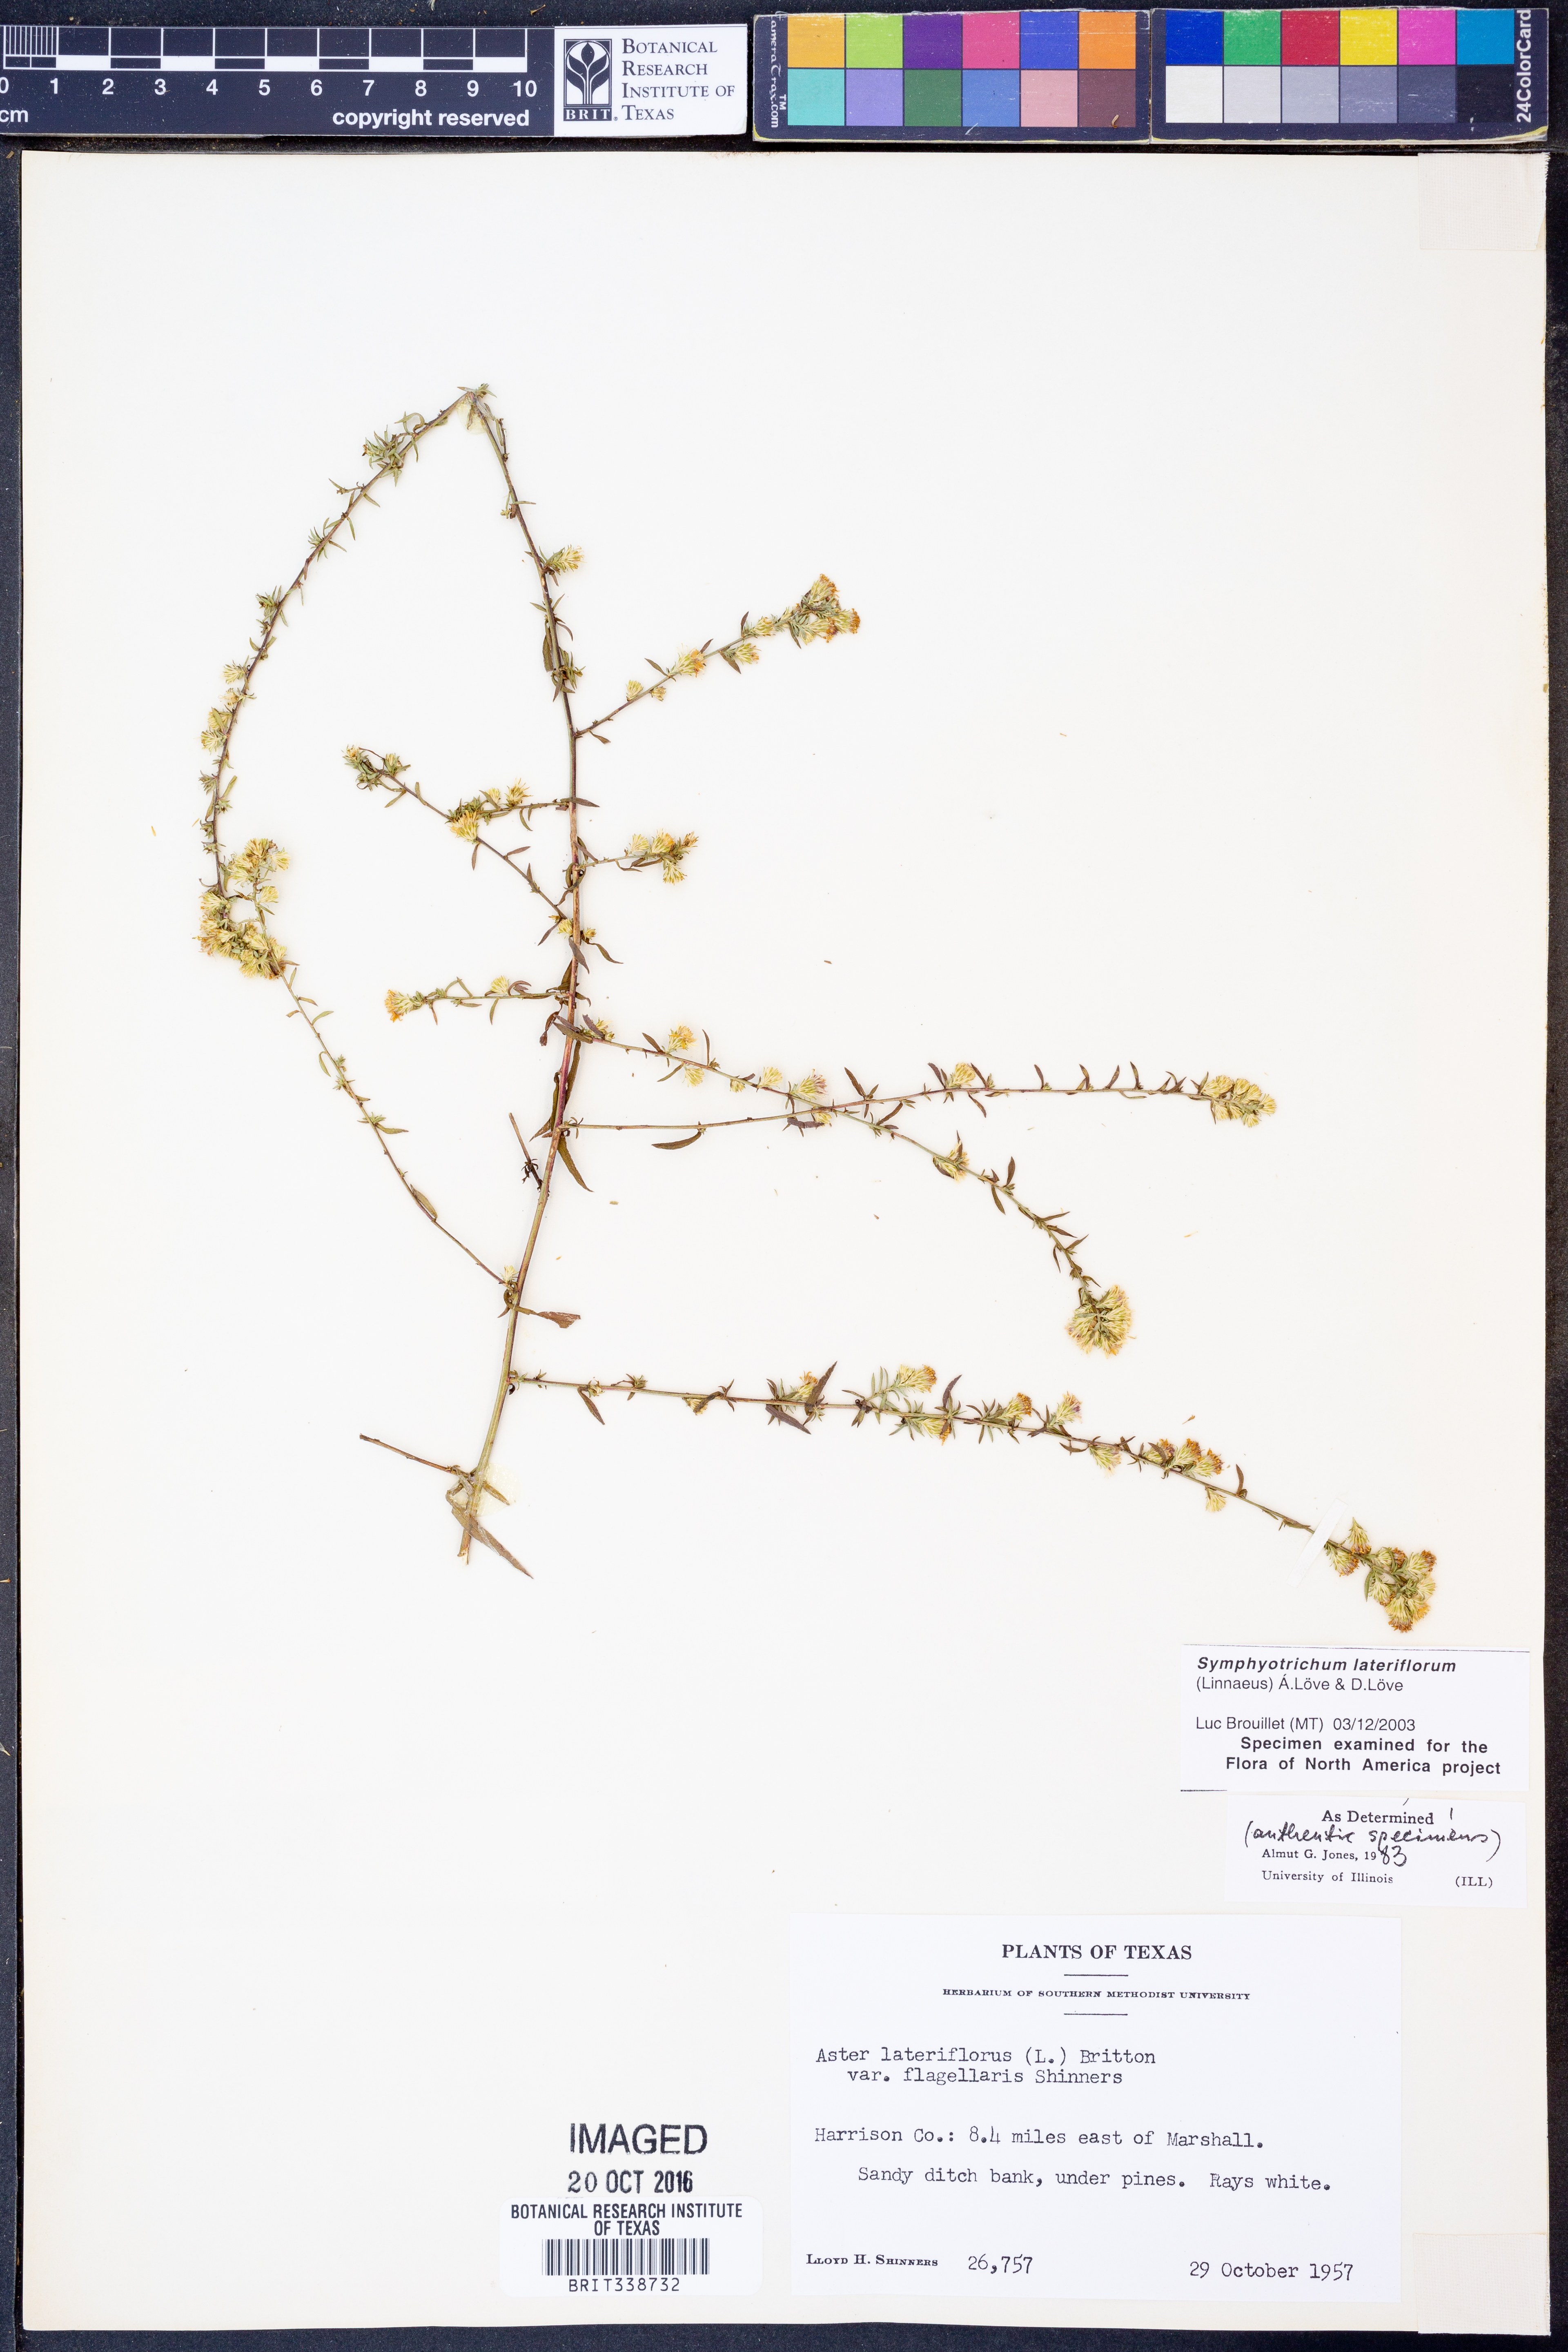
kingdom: Plantae
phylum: Tracheophyta
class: Magnoliopsida
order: Asterales
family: Asteraceae
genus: Symphyotrichum
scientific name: Symphyotrichum lateriflorum
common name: Calico aster
